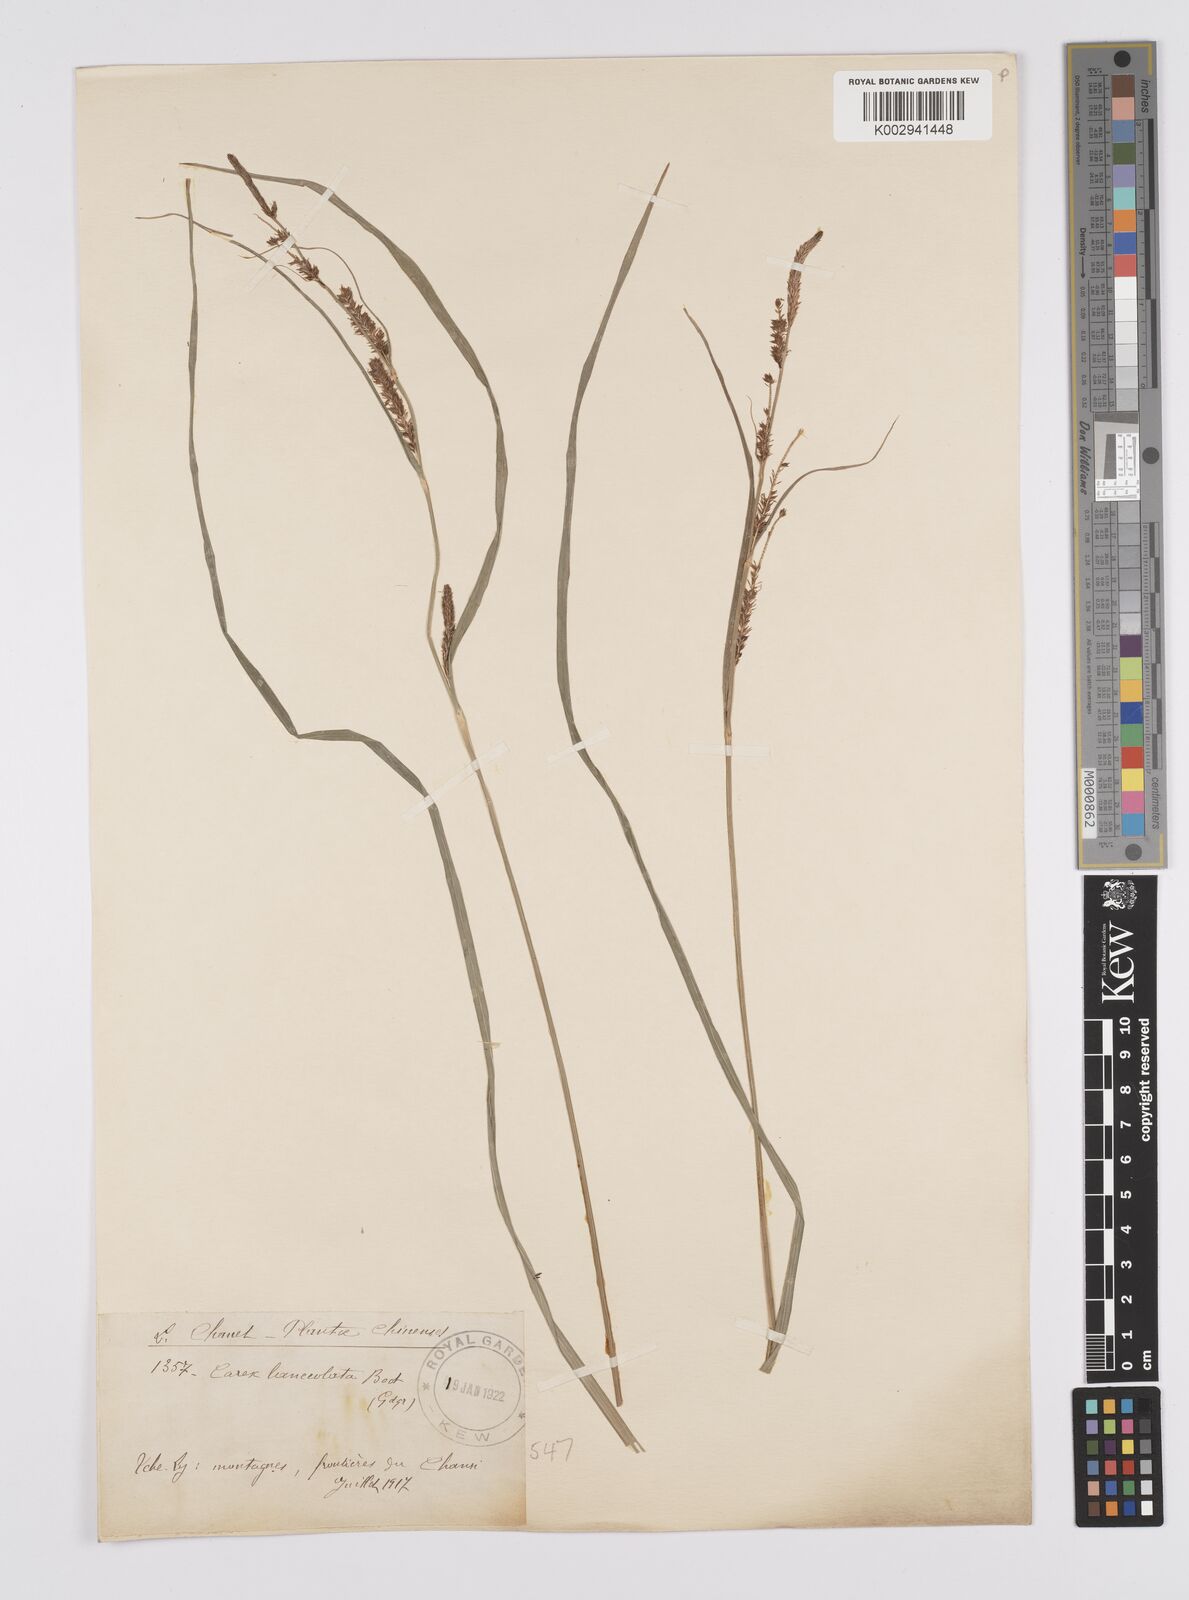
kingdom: Plantae
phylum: Tracheophyta
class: Liliopsida
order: Poales
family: Cyperaceae
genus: Carex
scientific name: Carex lanceolata
